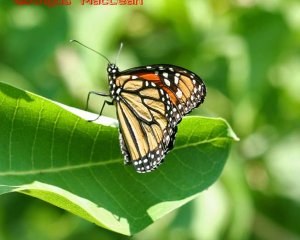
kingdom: Animalia
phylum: Arthropoda
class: Insecta
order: Lepidoptera
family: Nymphalidae
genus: Danaus
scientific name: Danaus plexippus
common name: Monarch
